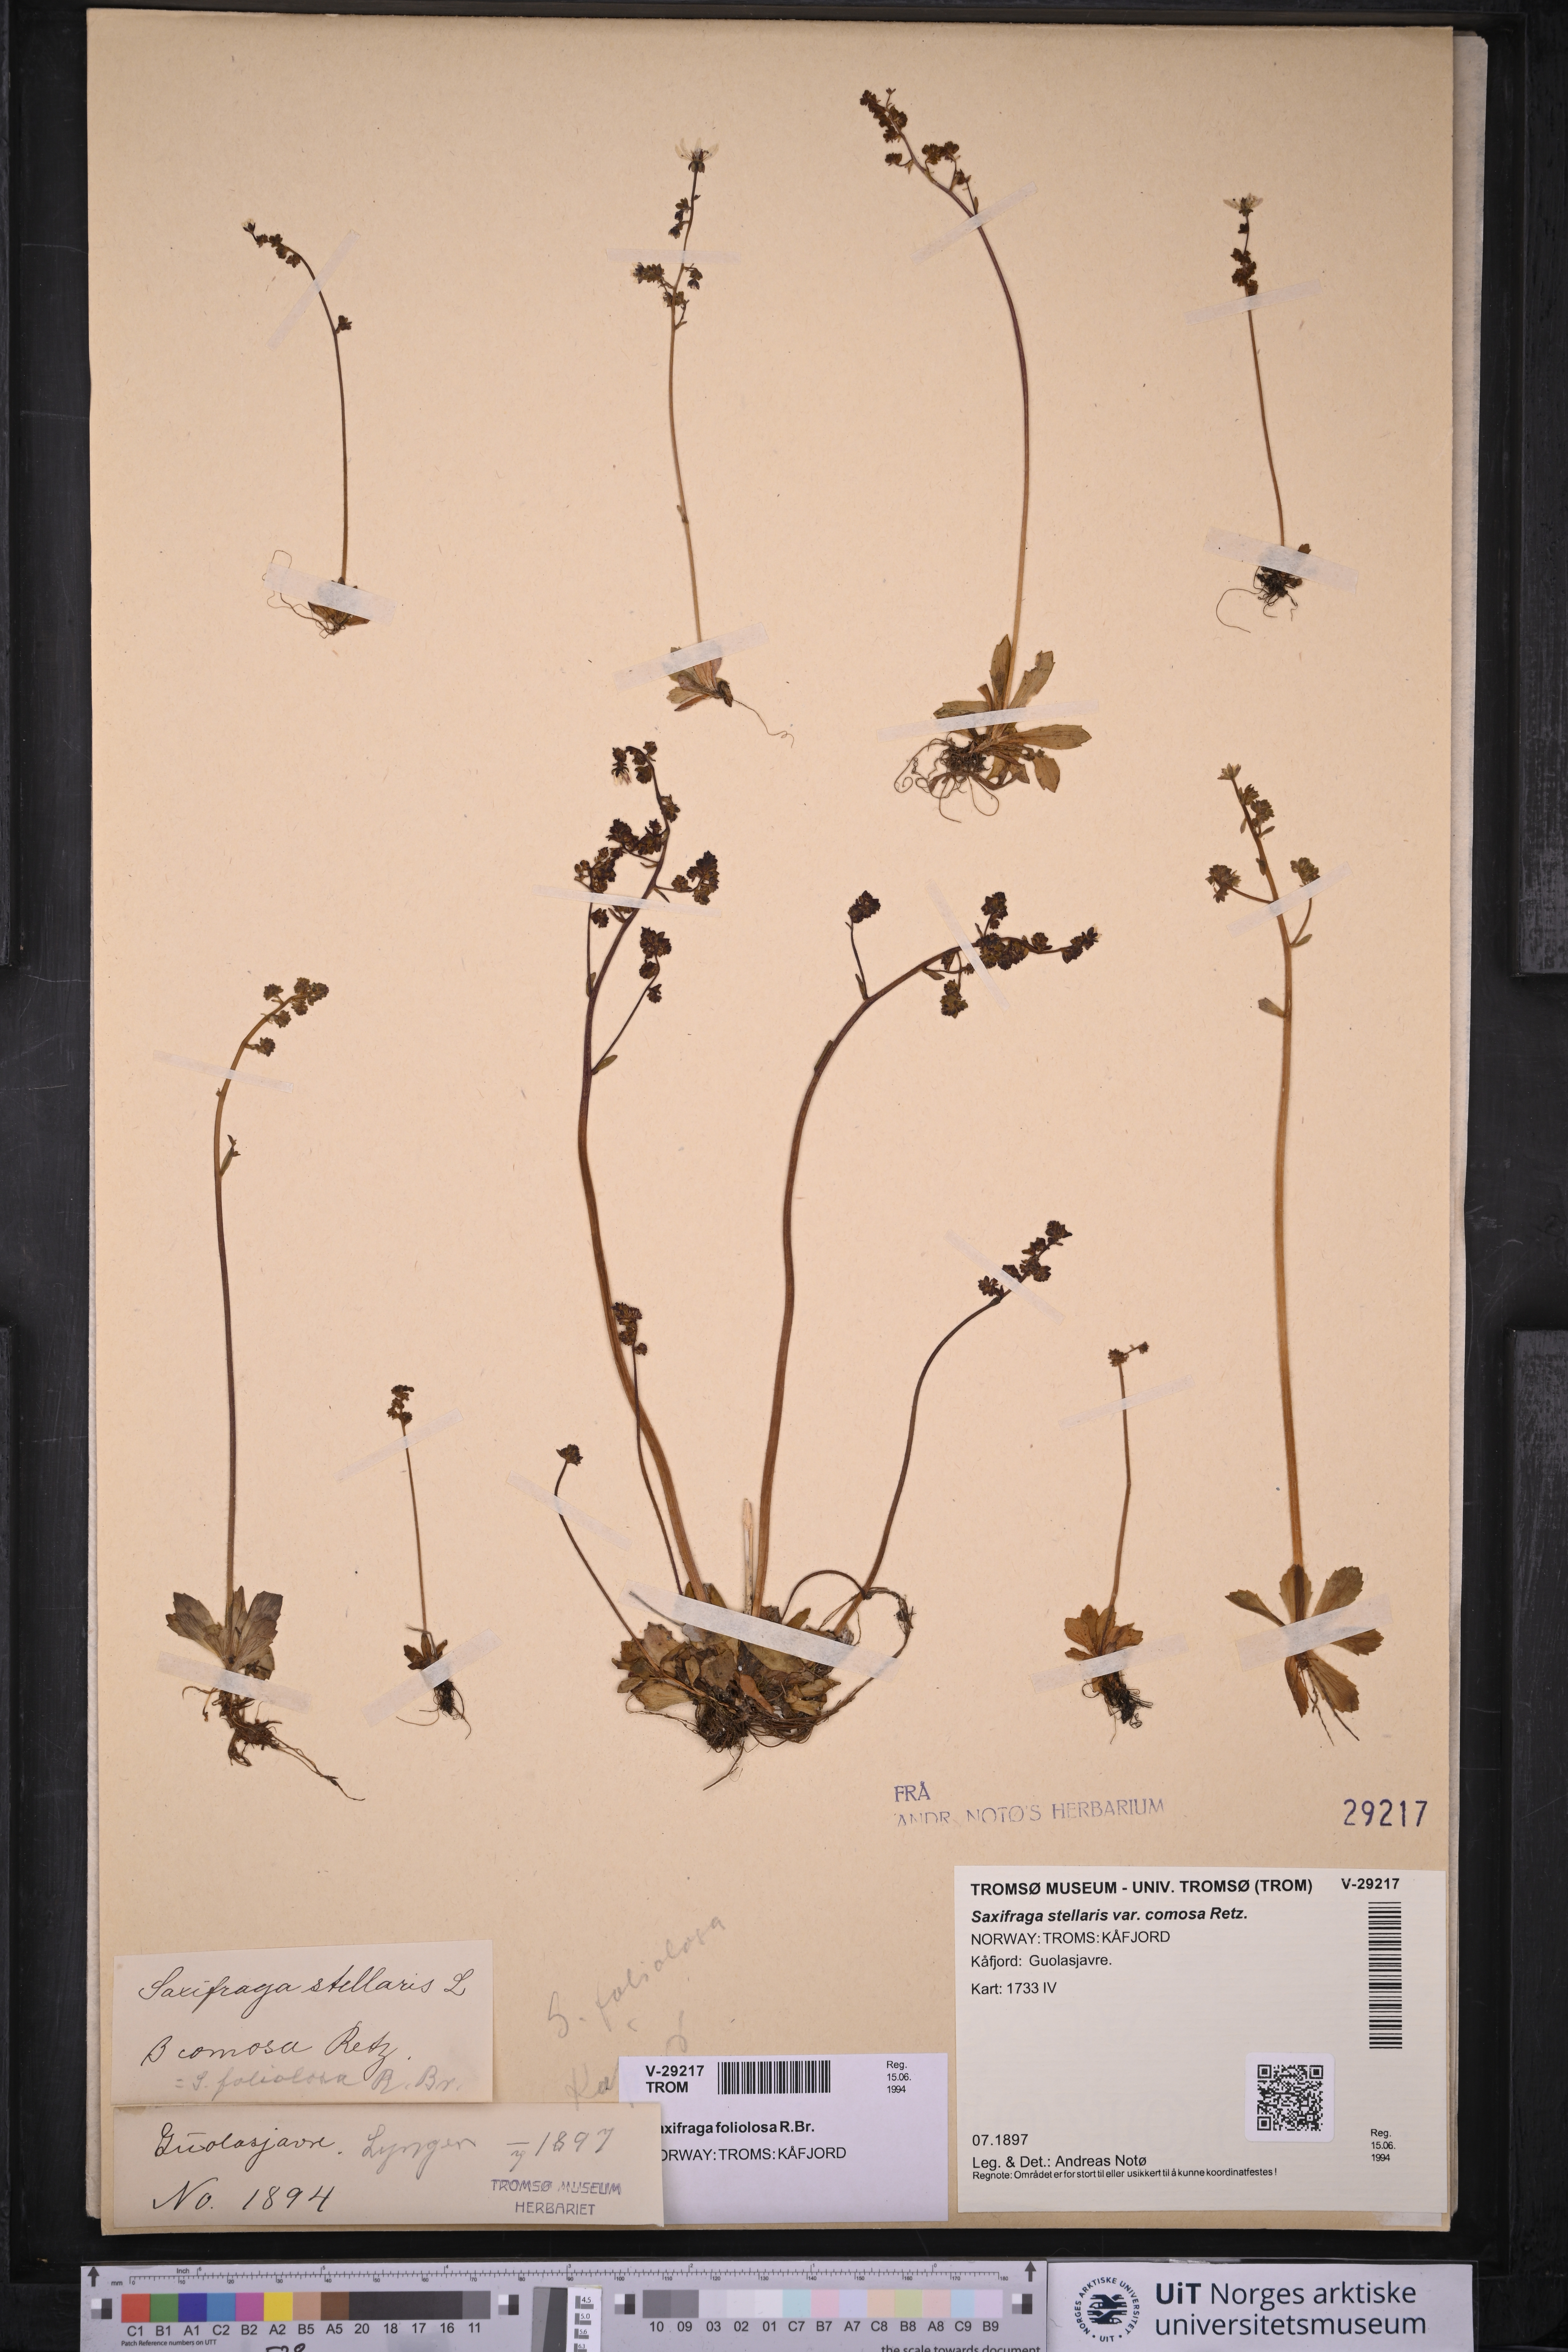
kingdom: Plantae
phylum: Tracheophyta
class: Magnoliopsida
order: Saxifragales
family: Saxifragaceae
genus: Micranthes
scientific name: Micranthes foliolosa
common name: Leafystem saxifrage
